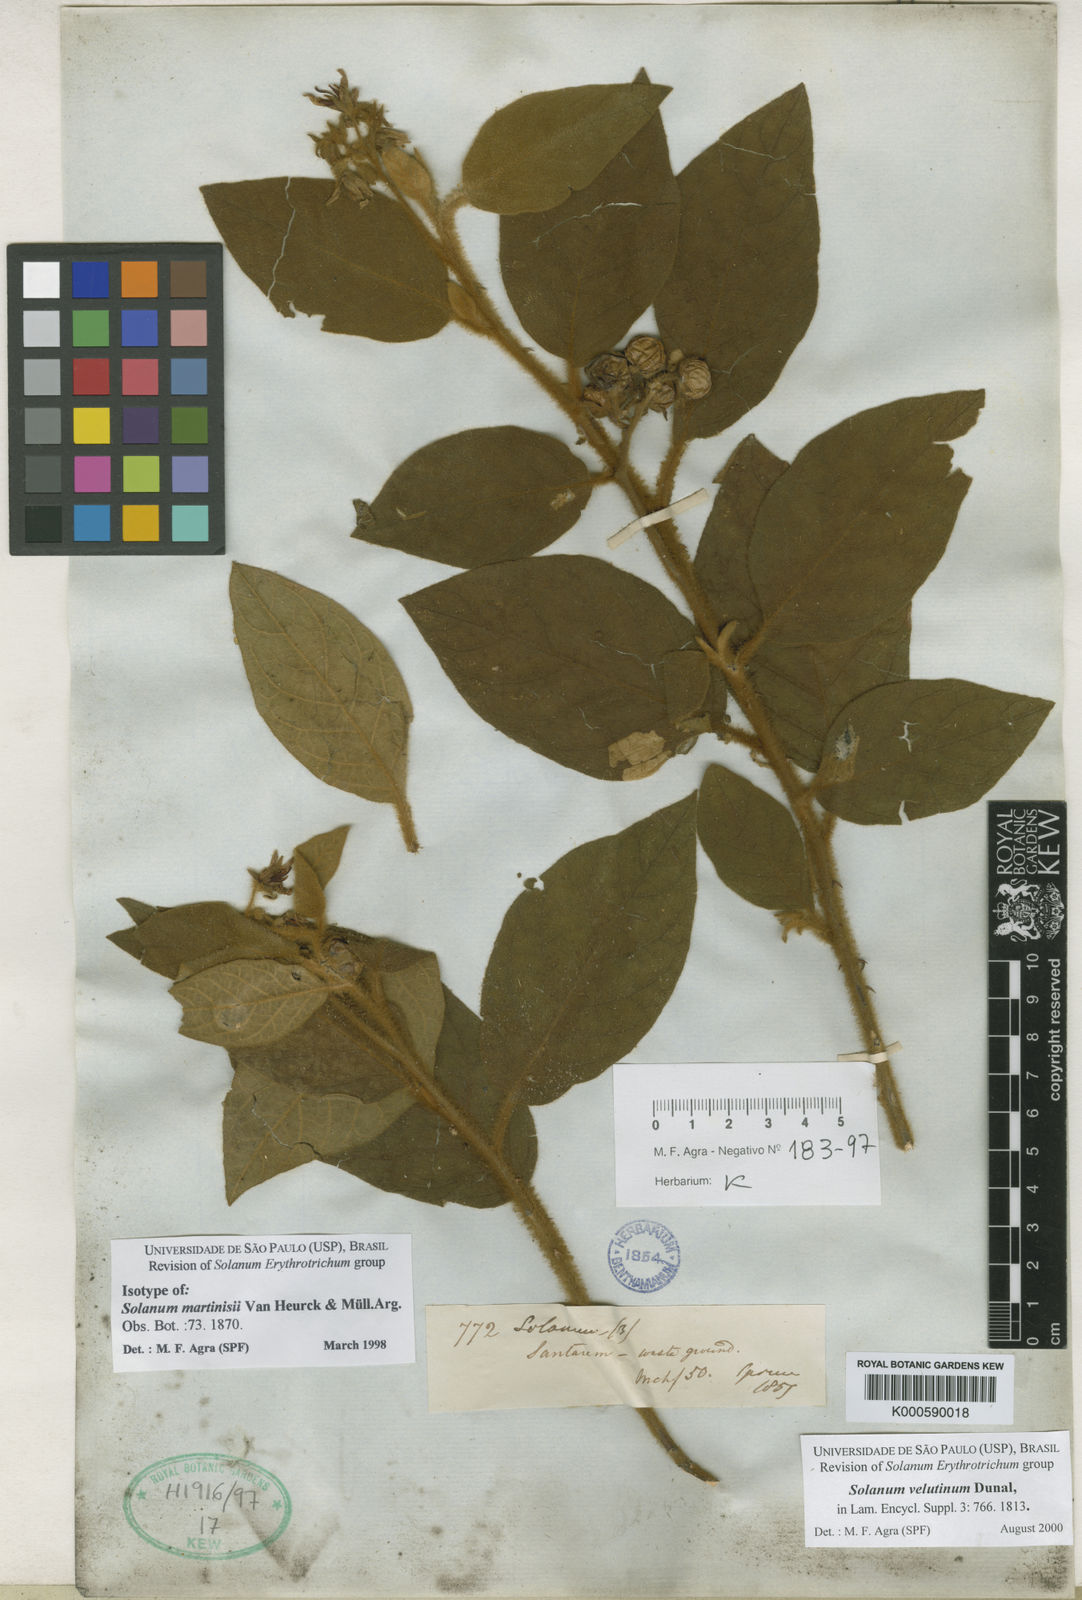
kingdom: Plantae
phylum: Tracheophyta
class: Magnoliopsida
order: Solanales
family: Solanaceae
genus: Solanum
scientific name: Solanum
